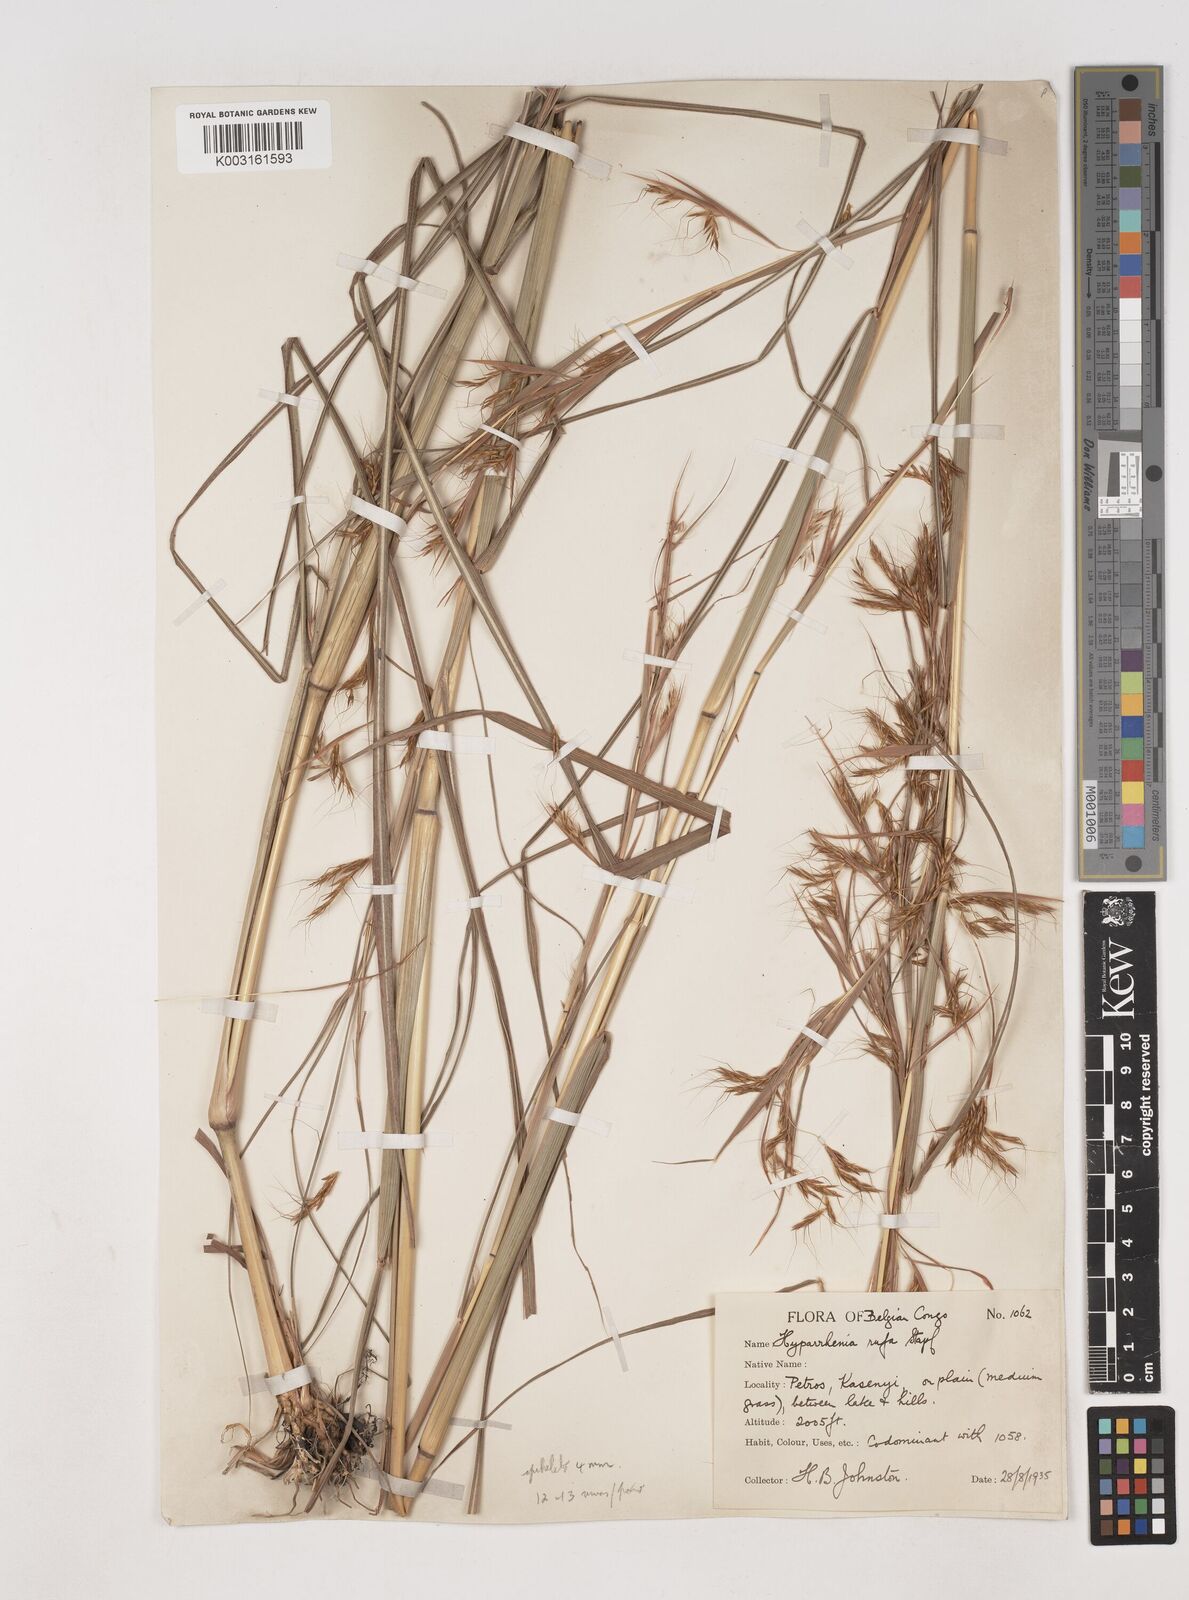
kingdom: Plantae
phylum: Tracheophyta
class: Liliopsida
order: Poales
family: Poaceae
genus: Hyparrhenia
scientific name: Hyparrhenia rufa
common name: Jaraguagrass
